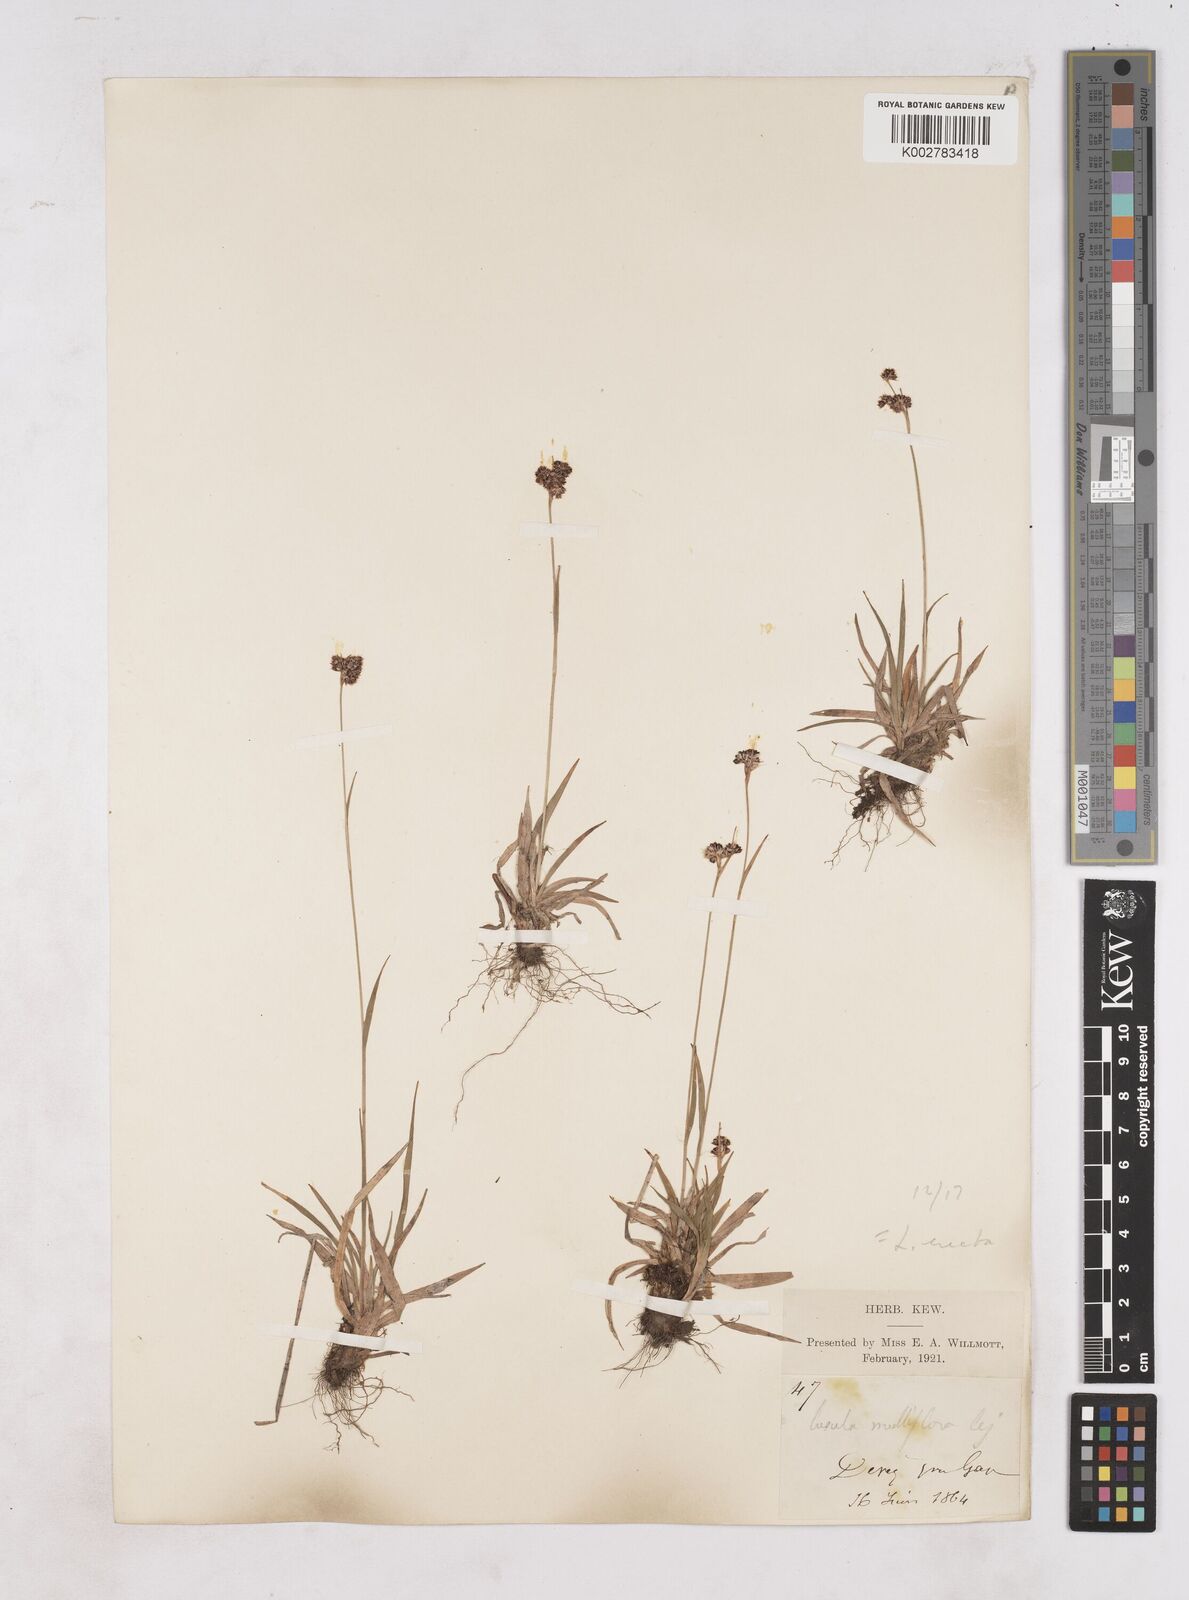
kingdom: Plantae
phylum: Tracheophyta
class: Liliopsida
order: Poales
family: Juncaceae
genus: Luzula
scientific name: Luzula multiflora
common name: Heath wood-rush
